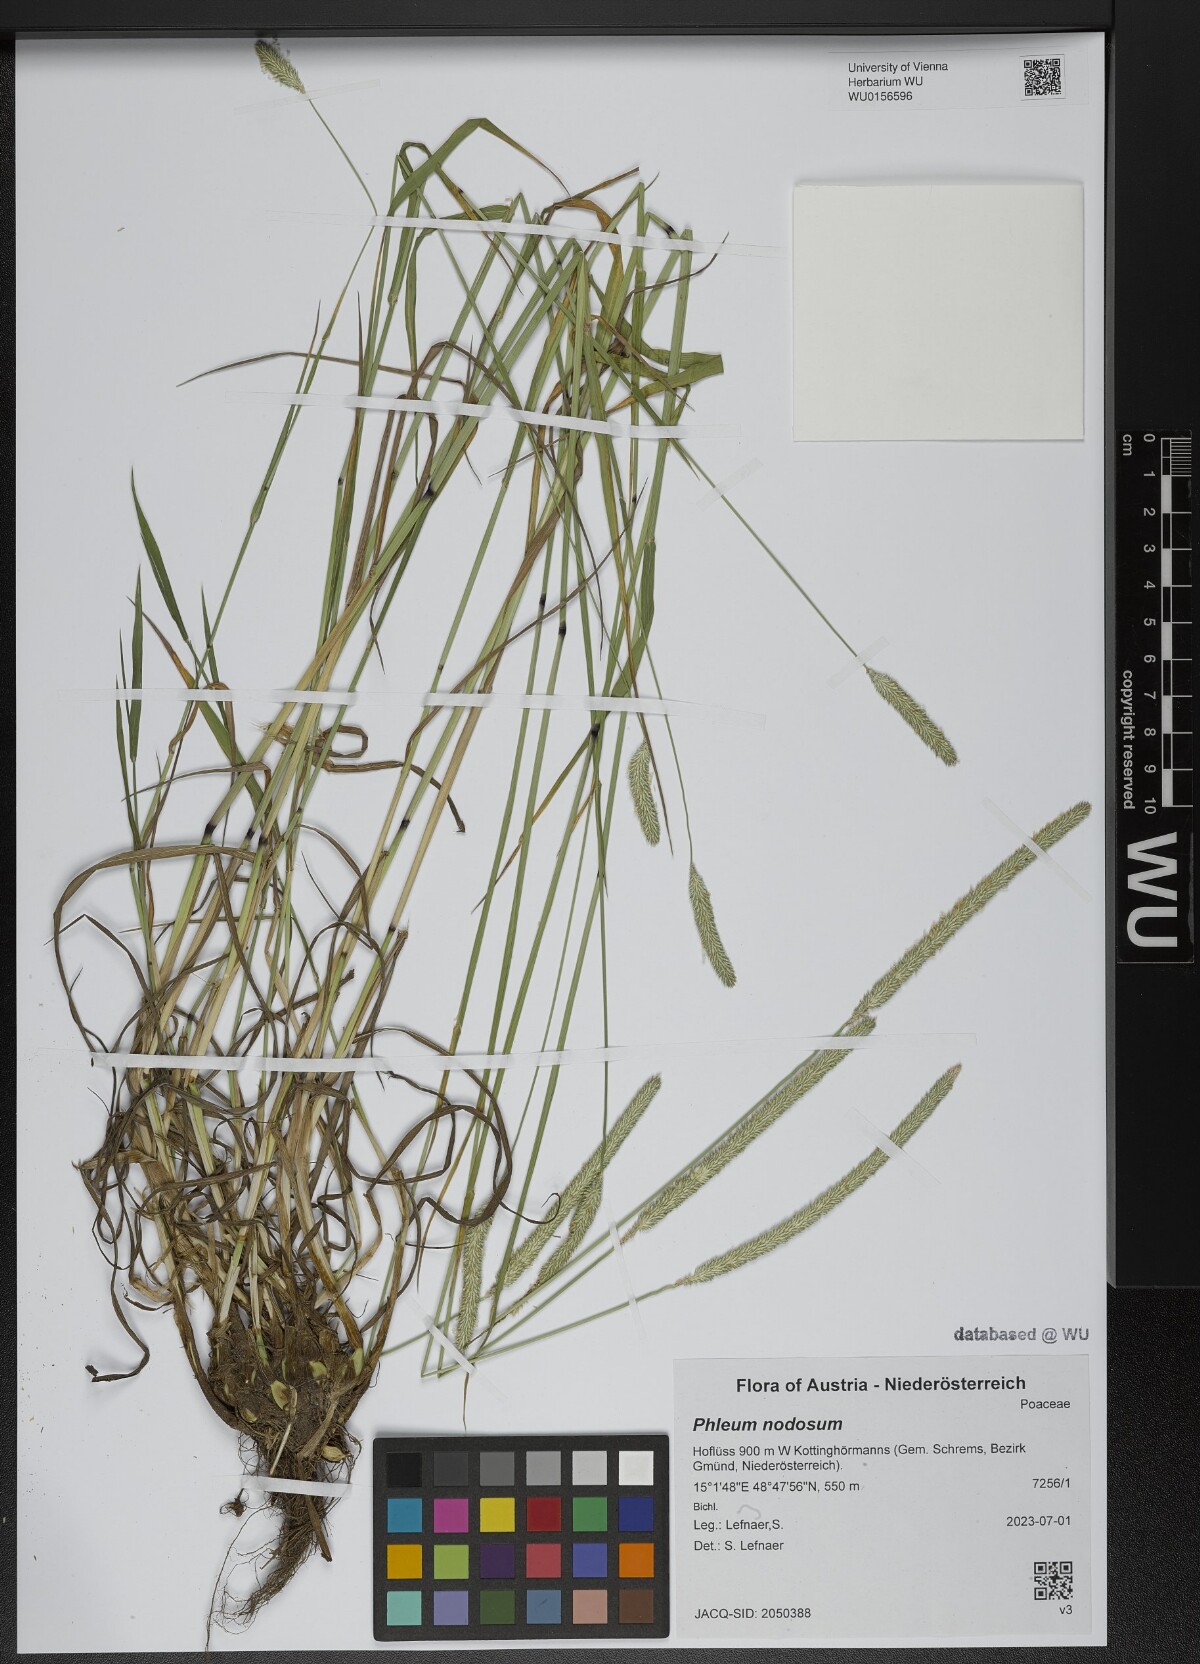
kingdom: Plantae
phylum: Tracheophyta
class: Liliopsida
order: Poales
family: Poaceae
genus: Phleum
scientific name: Phleum pratense
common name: Timothy grass
